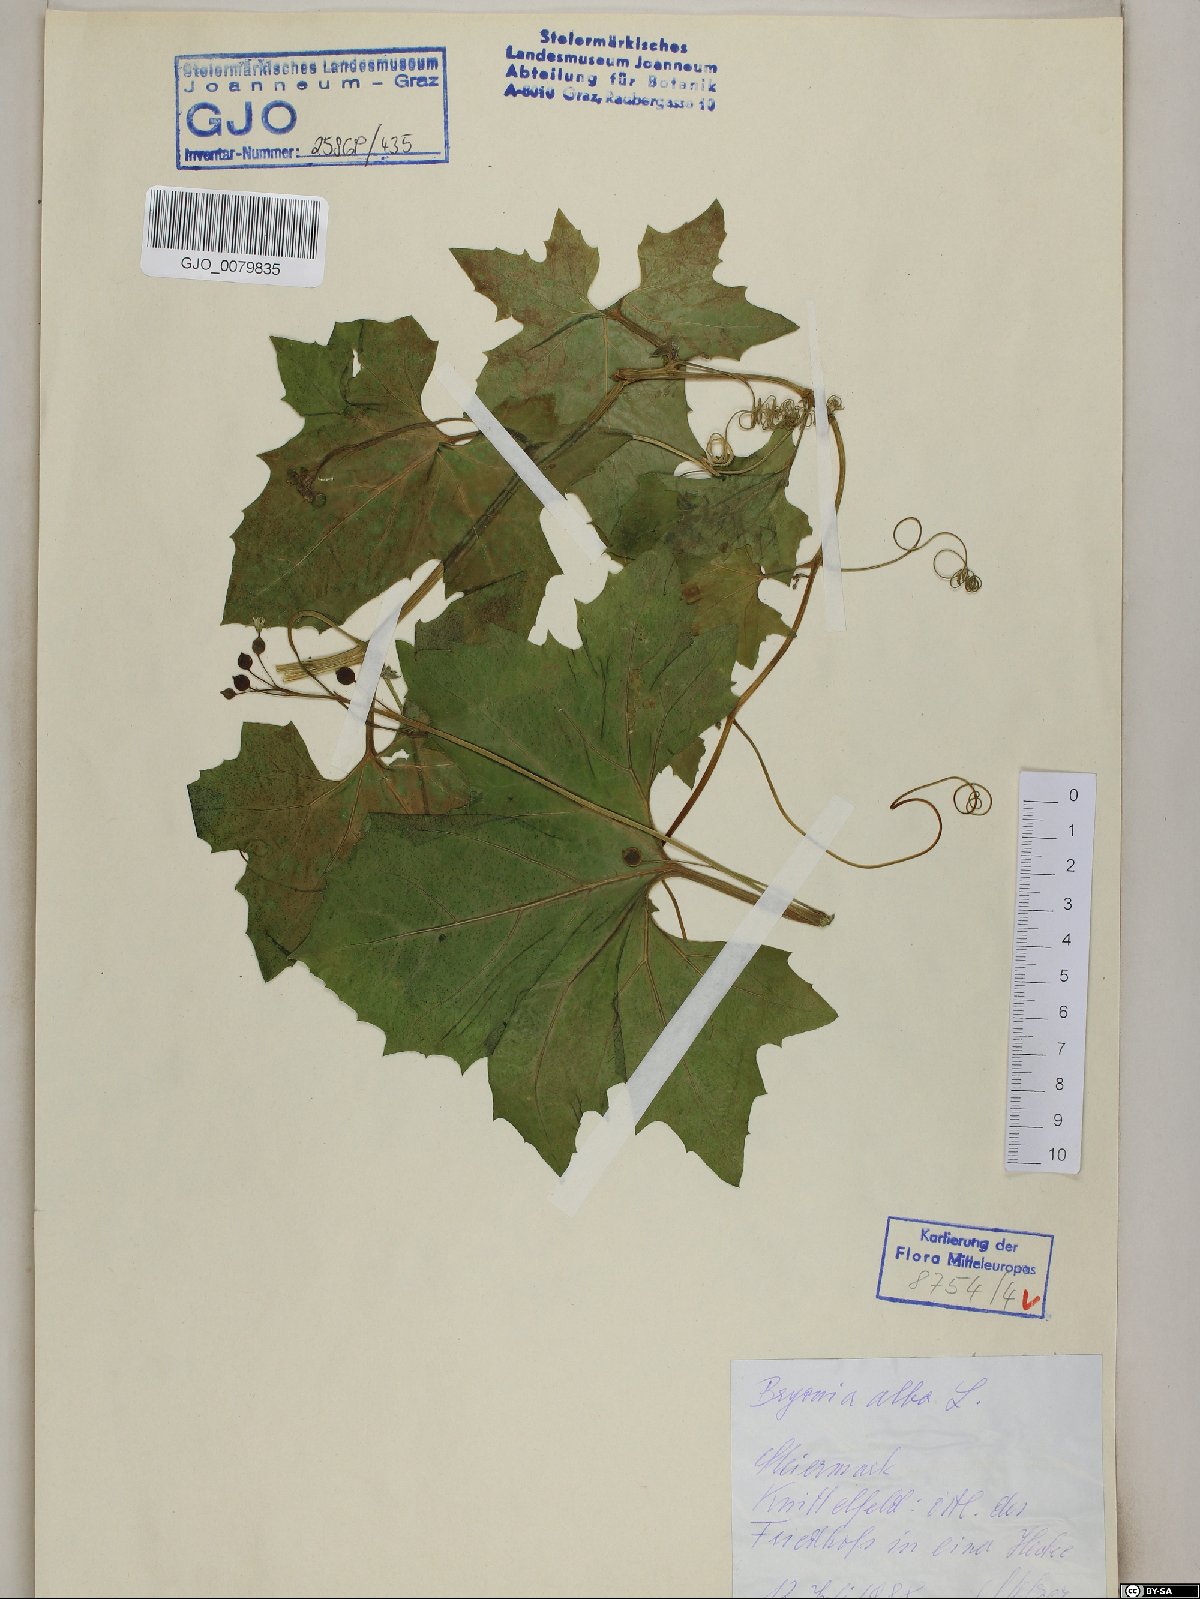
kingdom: Plantae
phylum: Tracheophyta
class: Magnoliopsida
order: Cucurbitales
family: Cucurbitaceae
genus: Bryonia
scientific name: Bryonia alba
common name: White bryony
